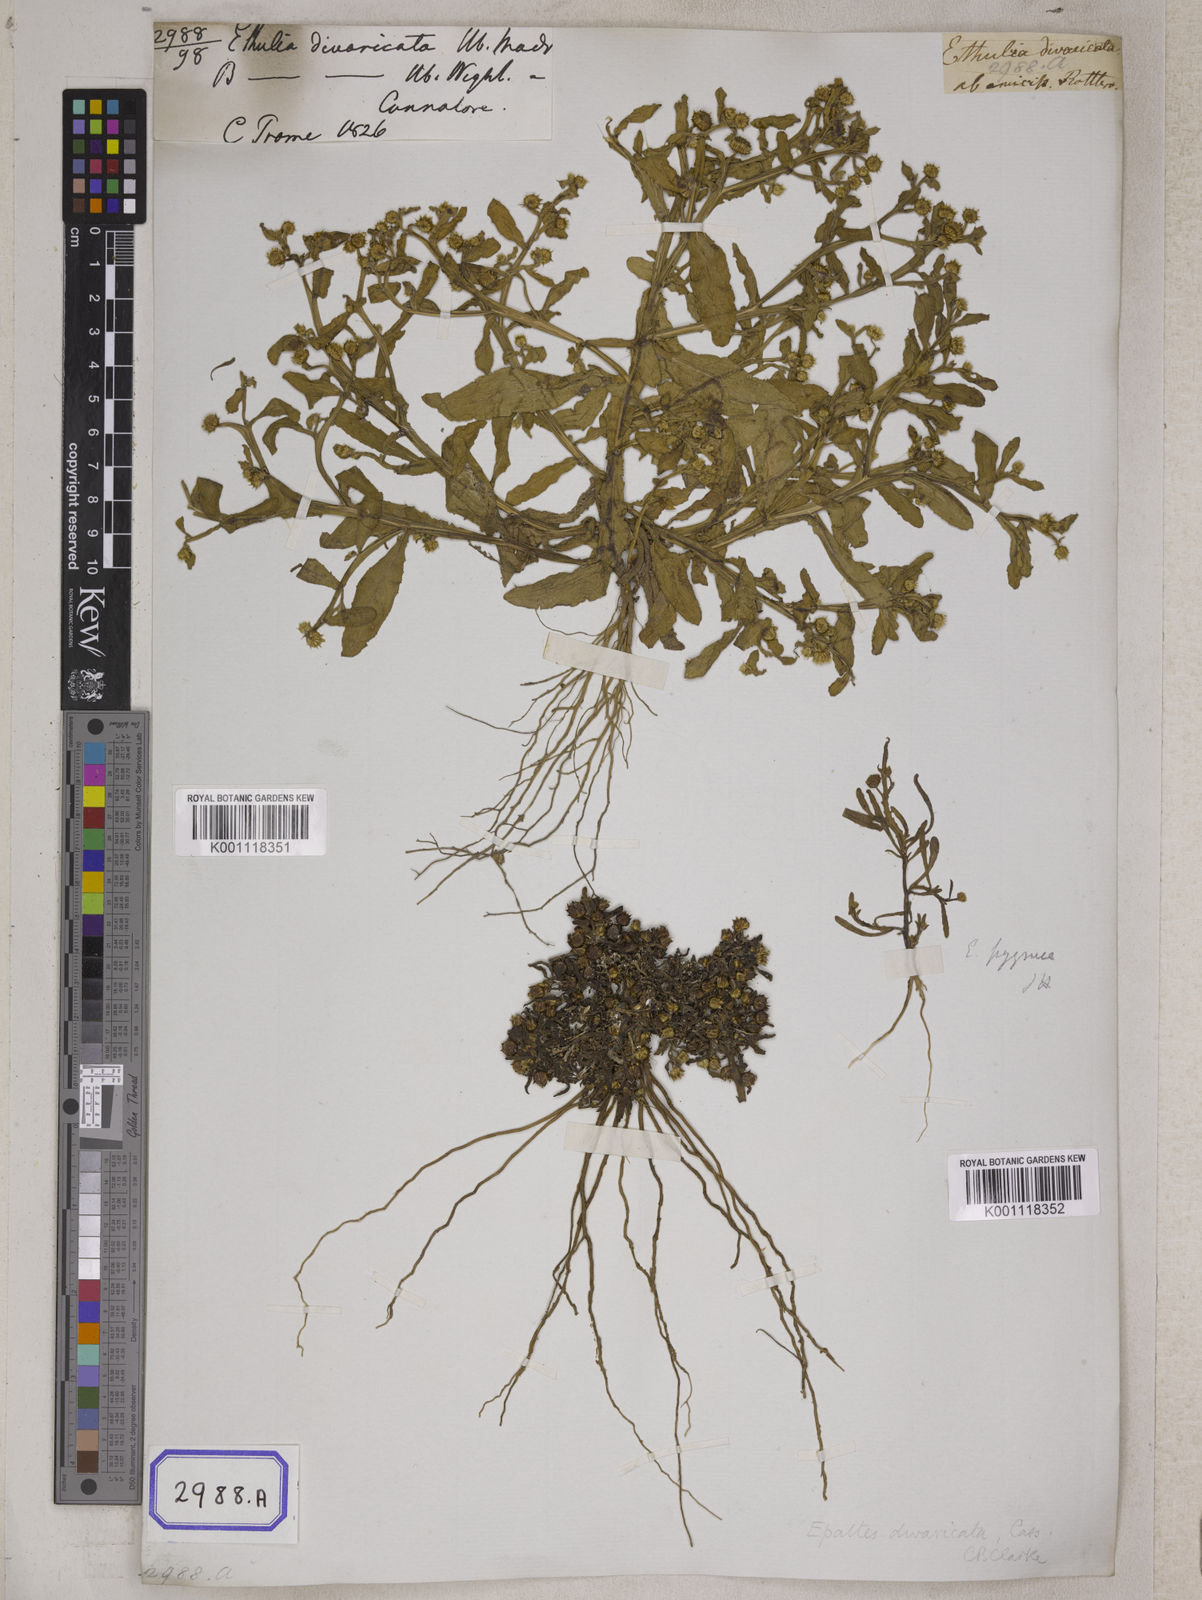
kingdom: Plantae
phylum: Tracheophyta
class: Magnoliopsida
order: Asterales
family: Asteraceae
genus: Brachyscome
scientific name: Brachyscome assamica
